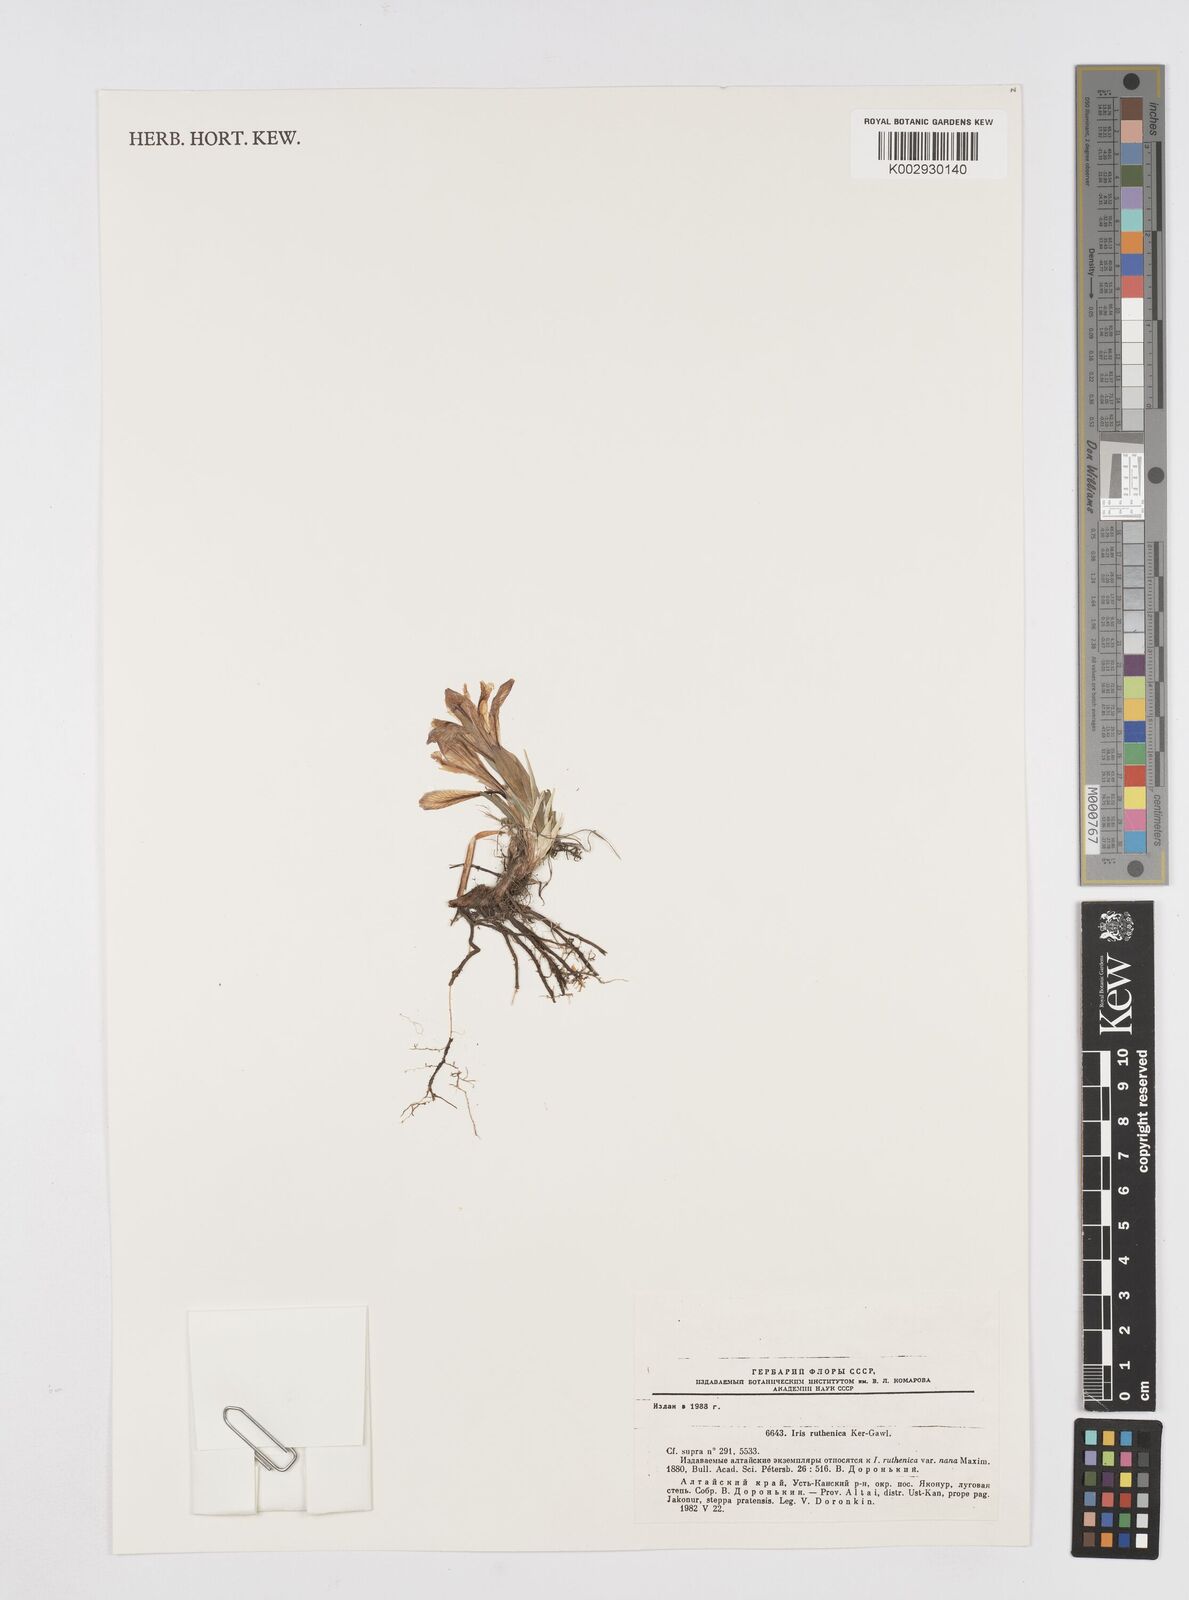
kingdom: Plantae
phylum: Tracheophyta
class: Liliopsida
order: Asparagales
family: Iridaceae
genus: Iris
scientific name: Iris ruthenica
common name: Purple-bract iris
